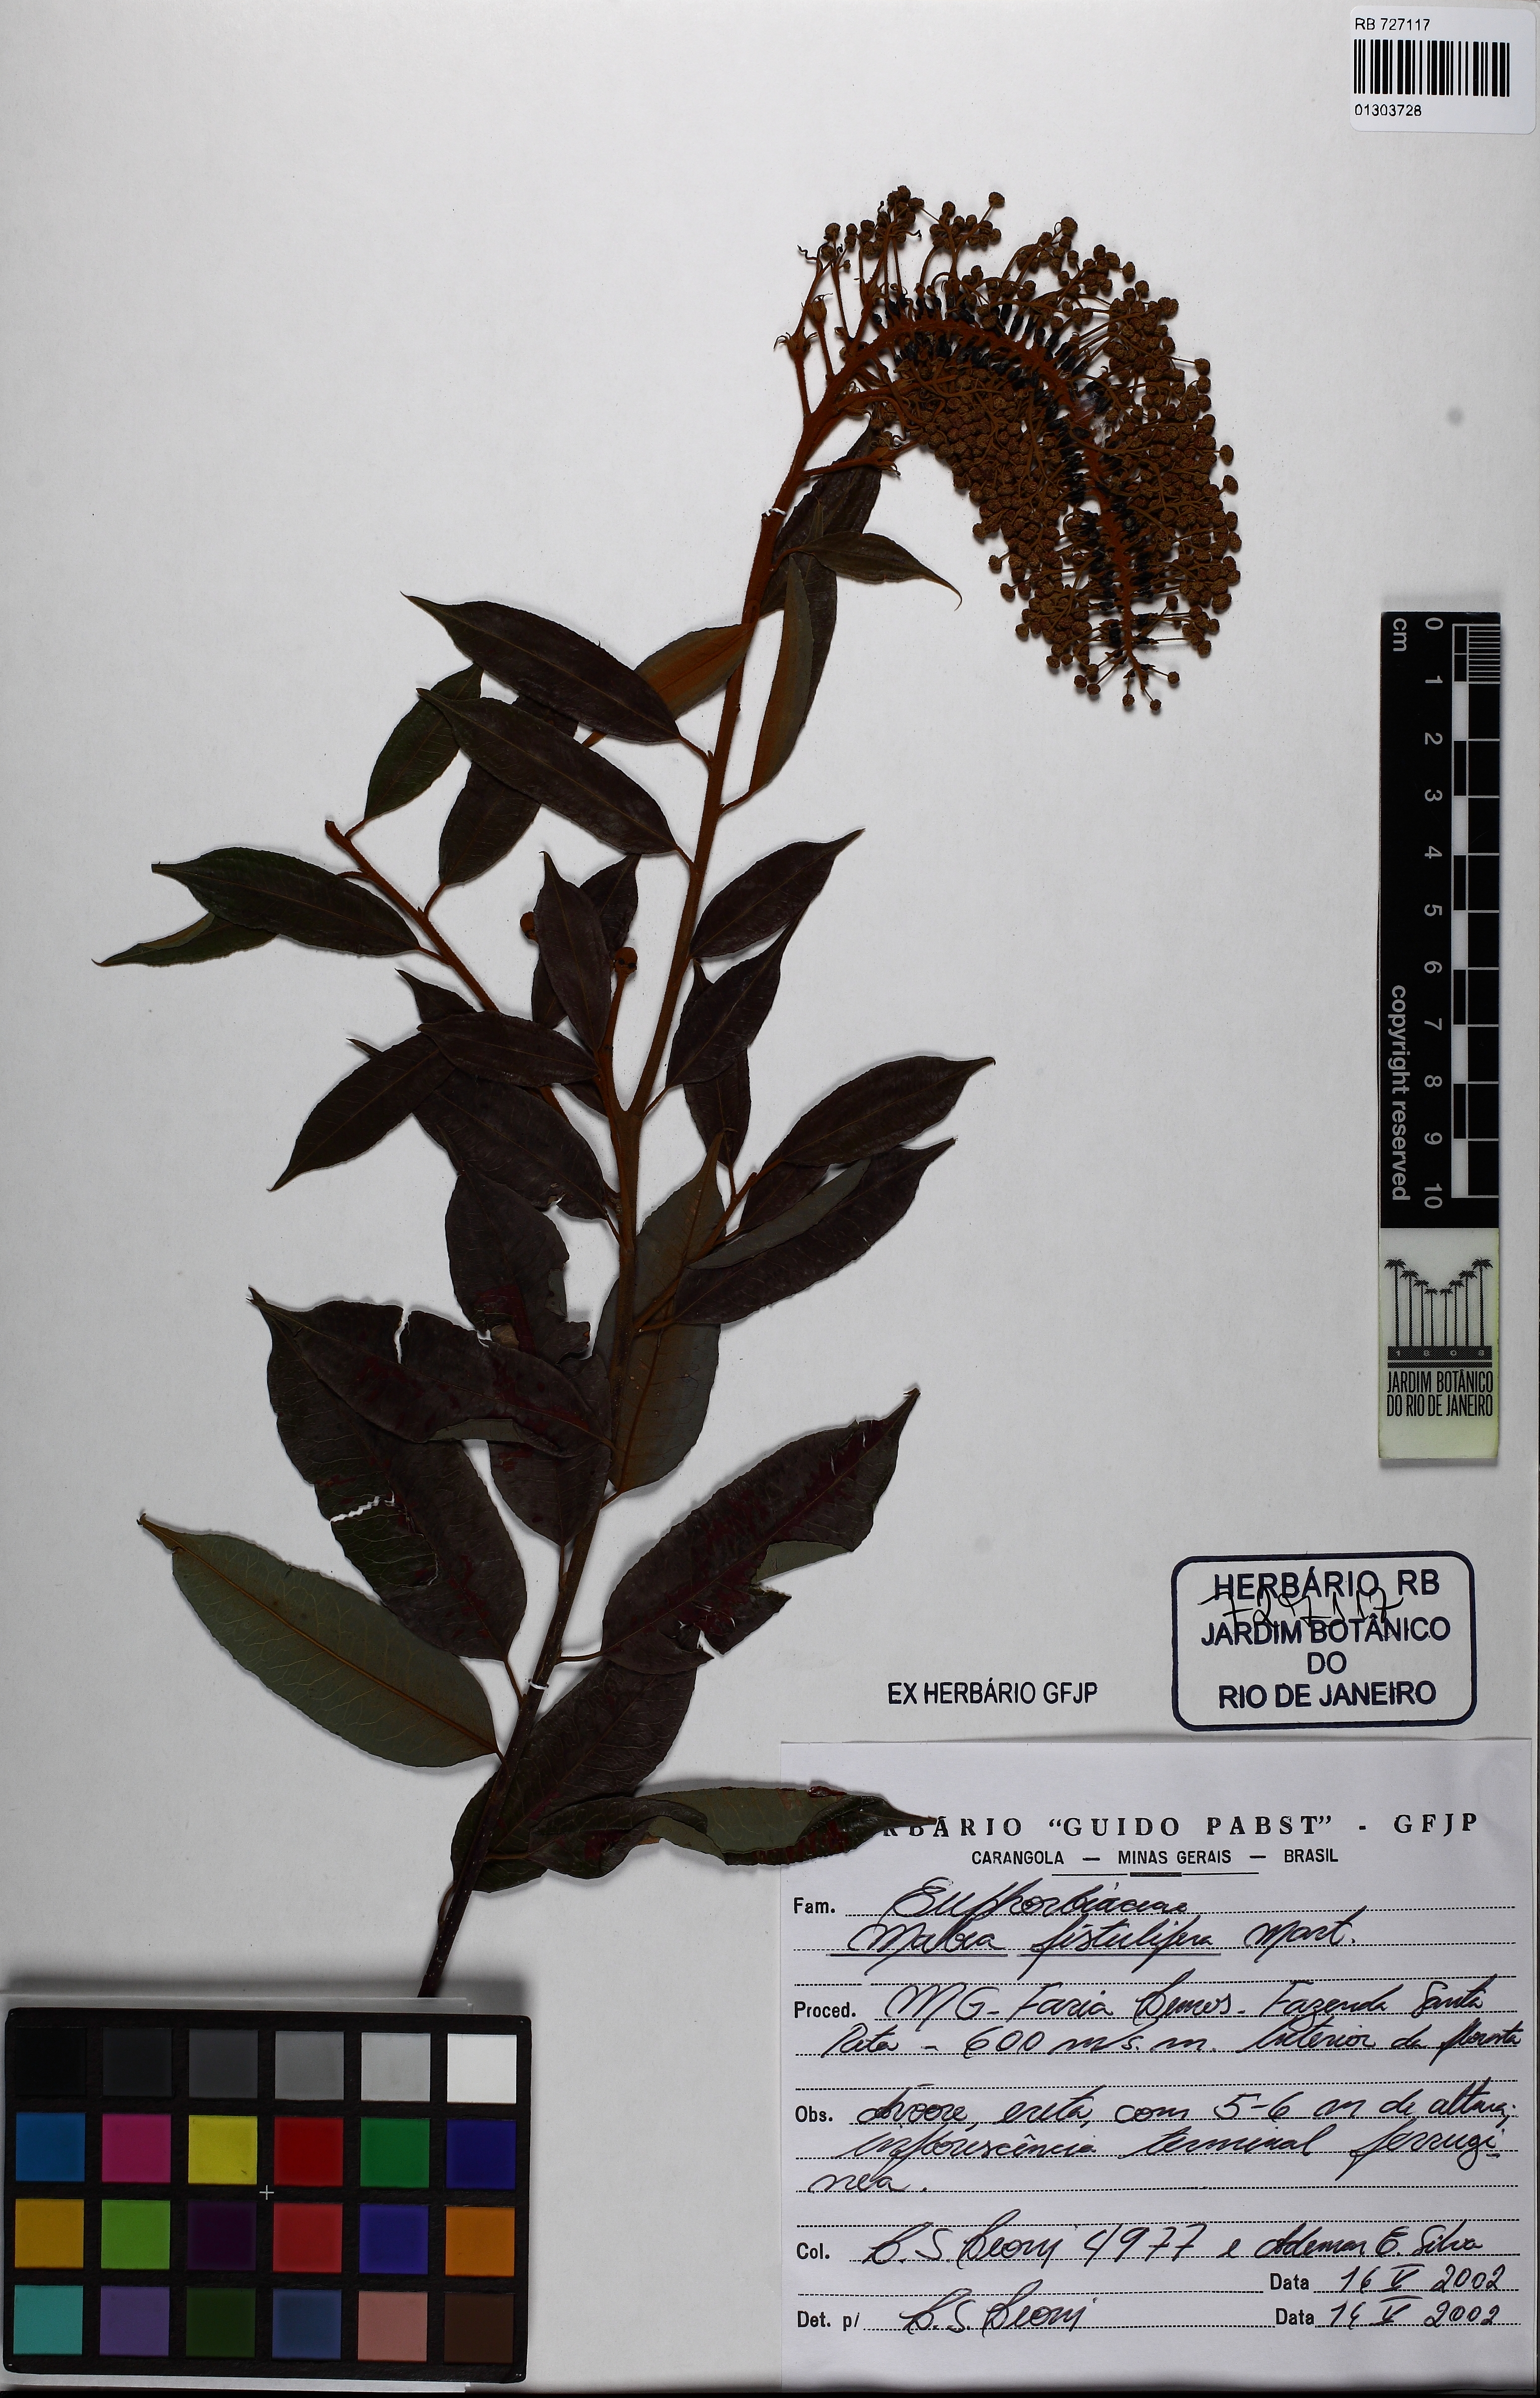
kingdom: Plantae
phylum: Tracheophyta
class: Magnoliopsida
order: Malpighiales
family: Euphorbiaceae
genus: Mabea
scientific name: Mabea fistulifera
